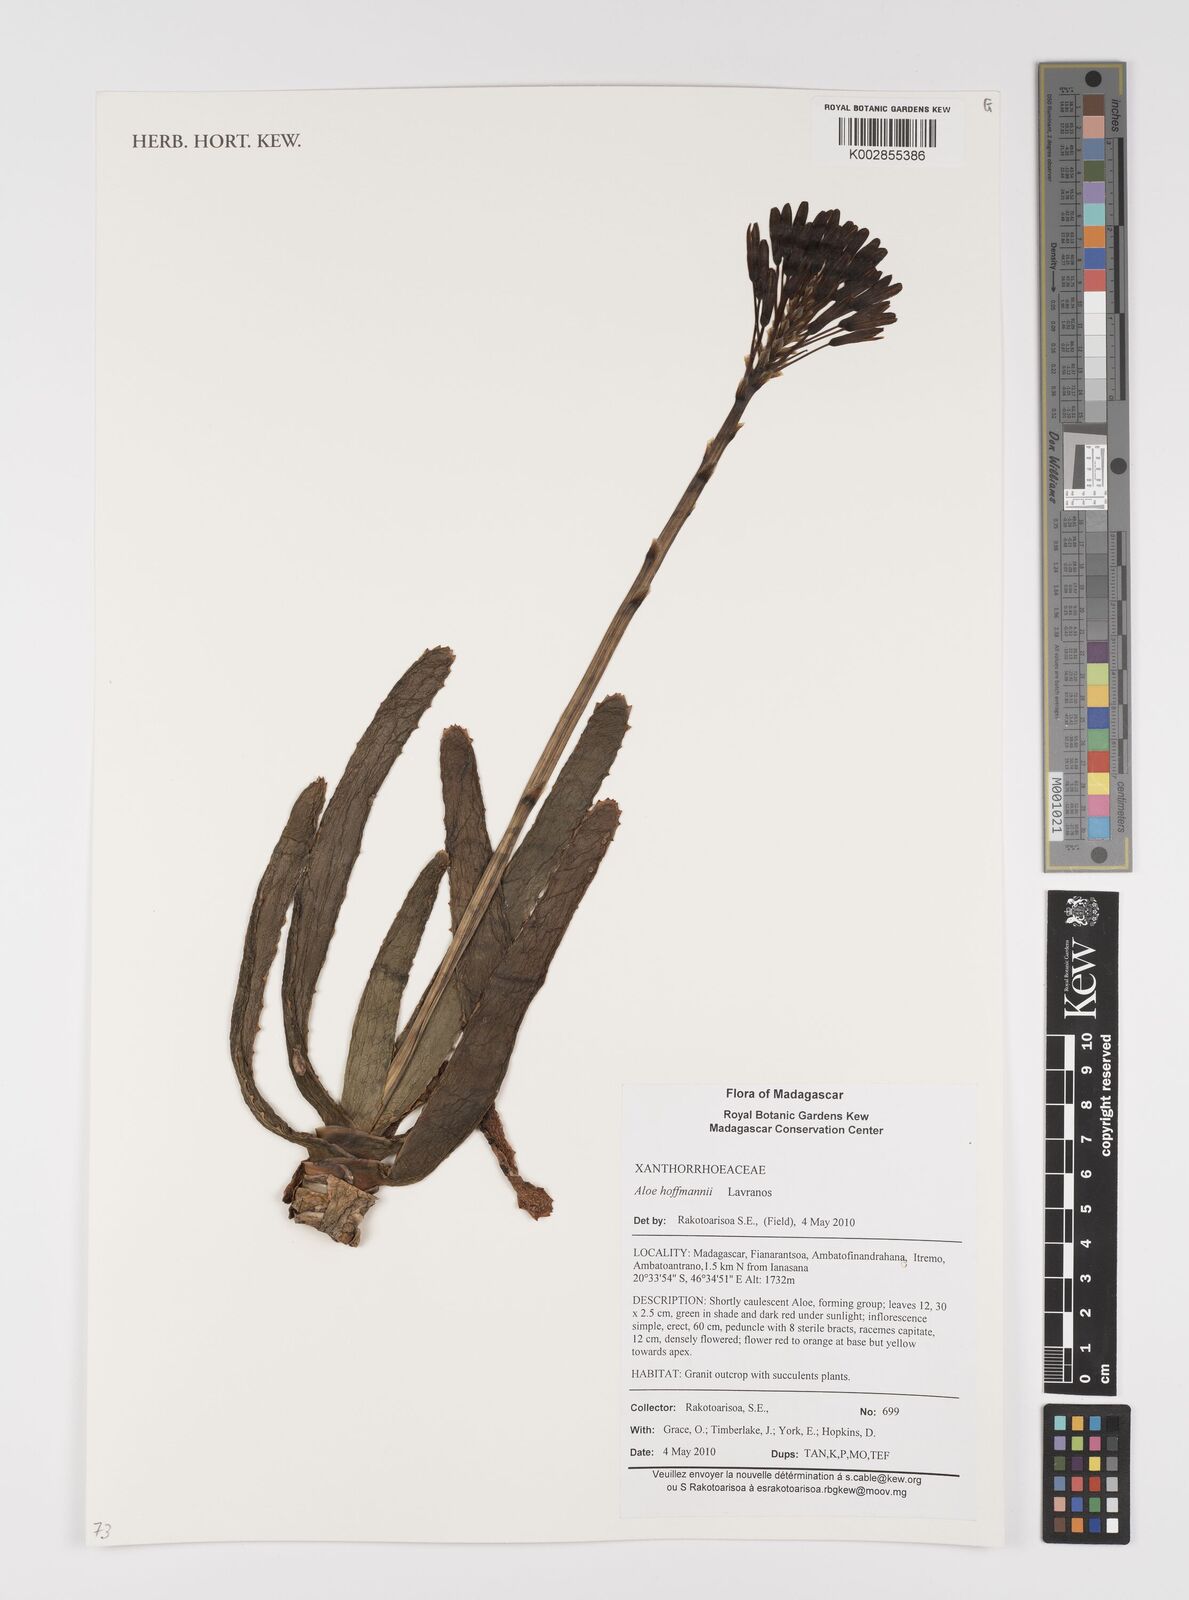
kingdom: Plantae
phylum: Tracheophyta
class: Liliopsida
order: Asparagales
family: Asphodelaceae
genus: Aloe
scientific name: Aloe hoffmannii
